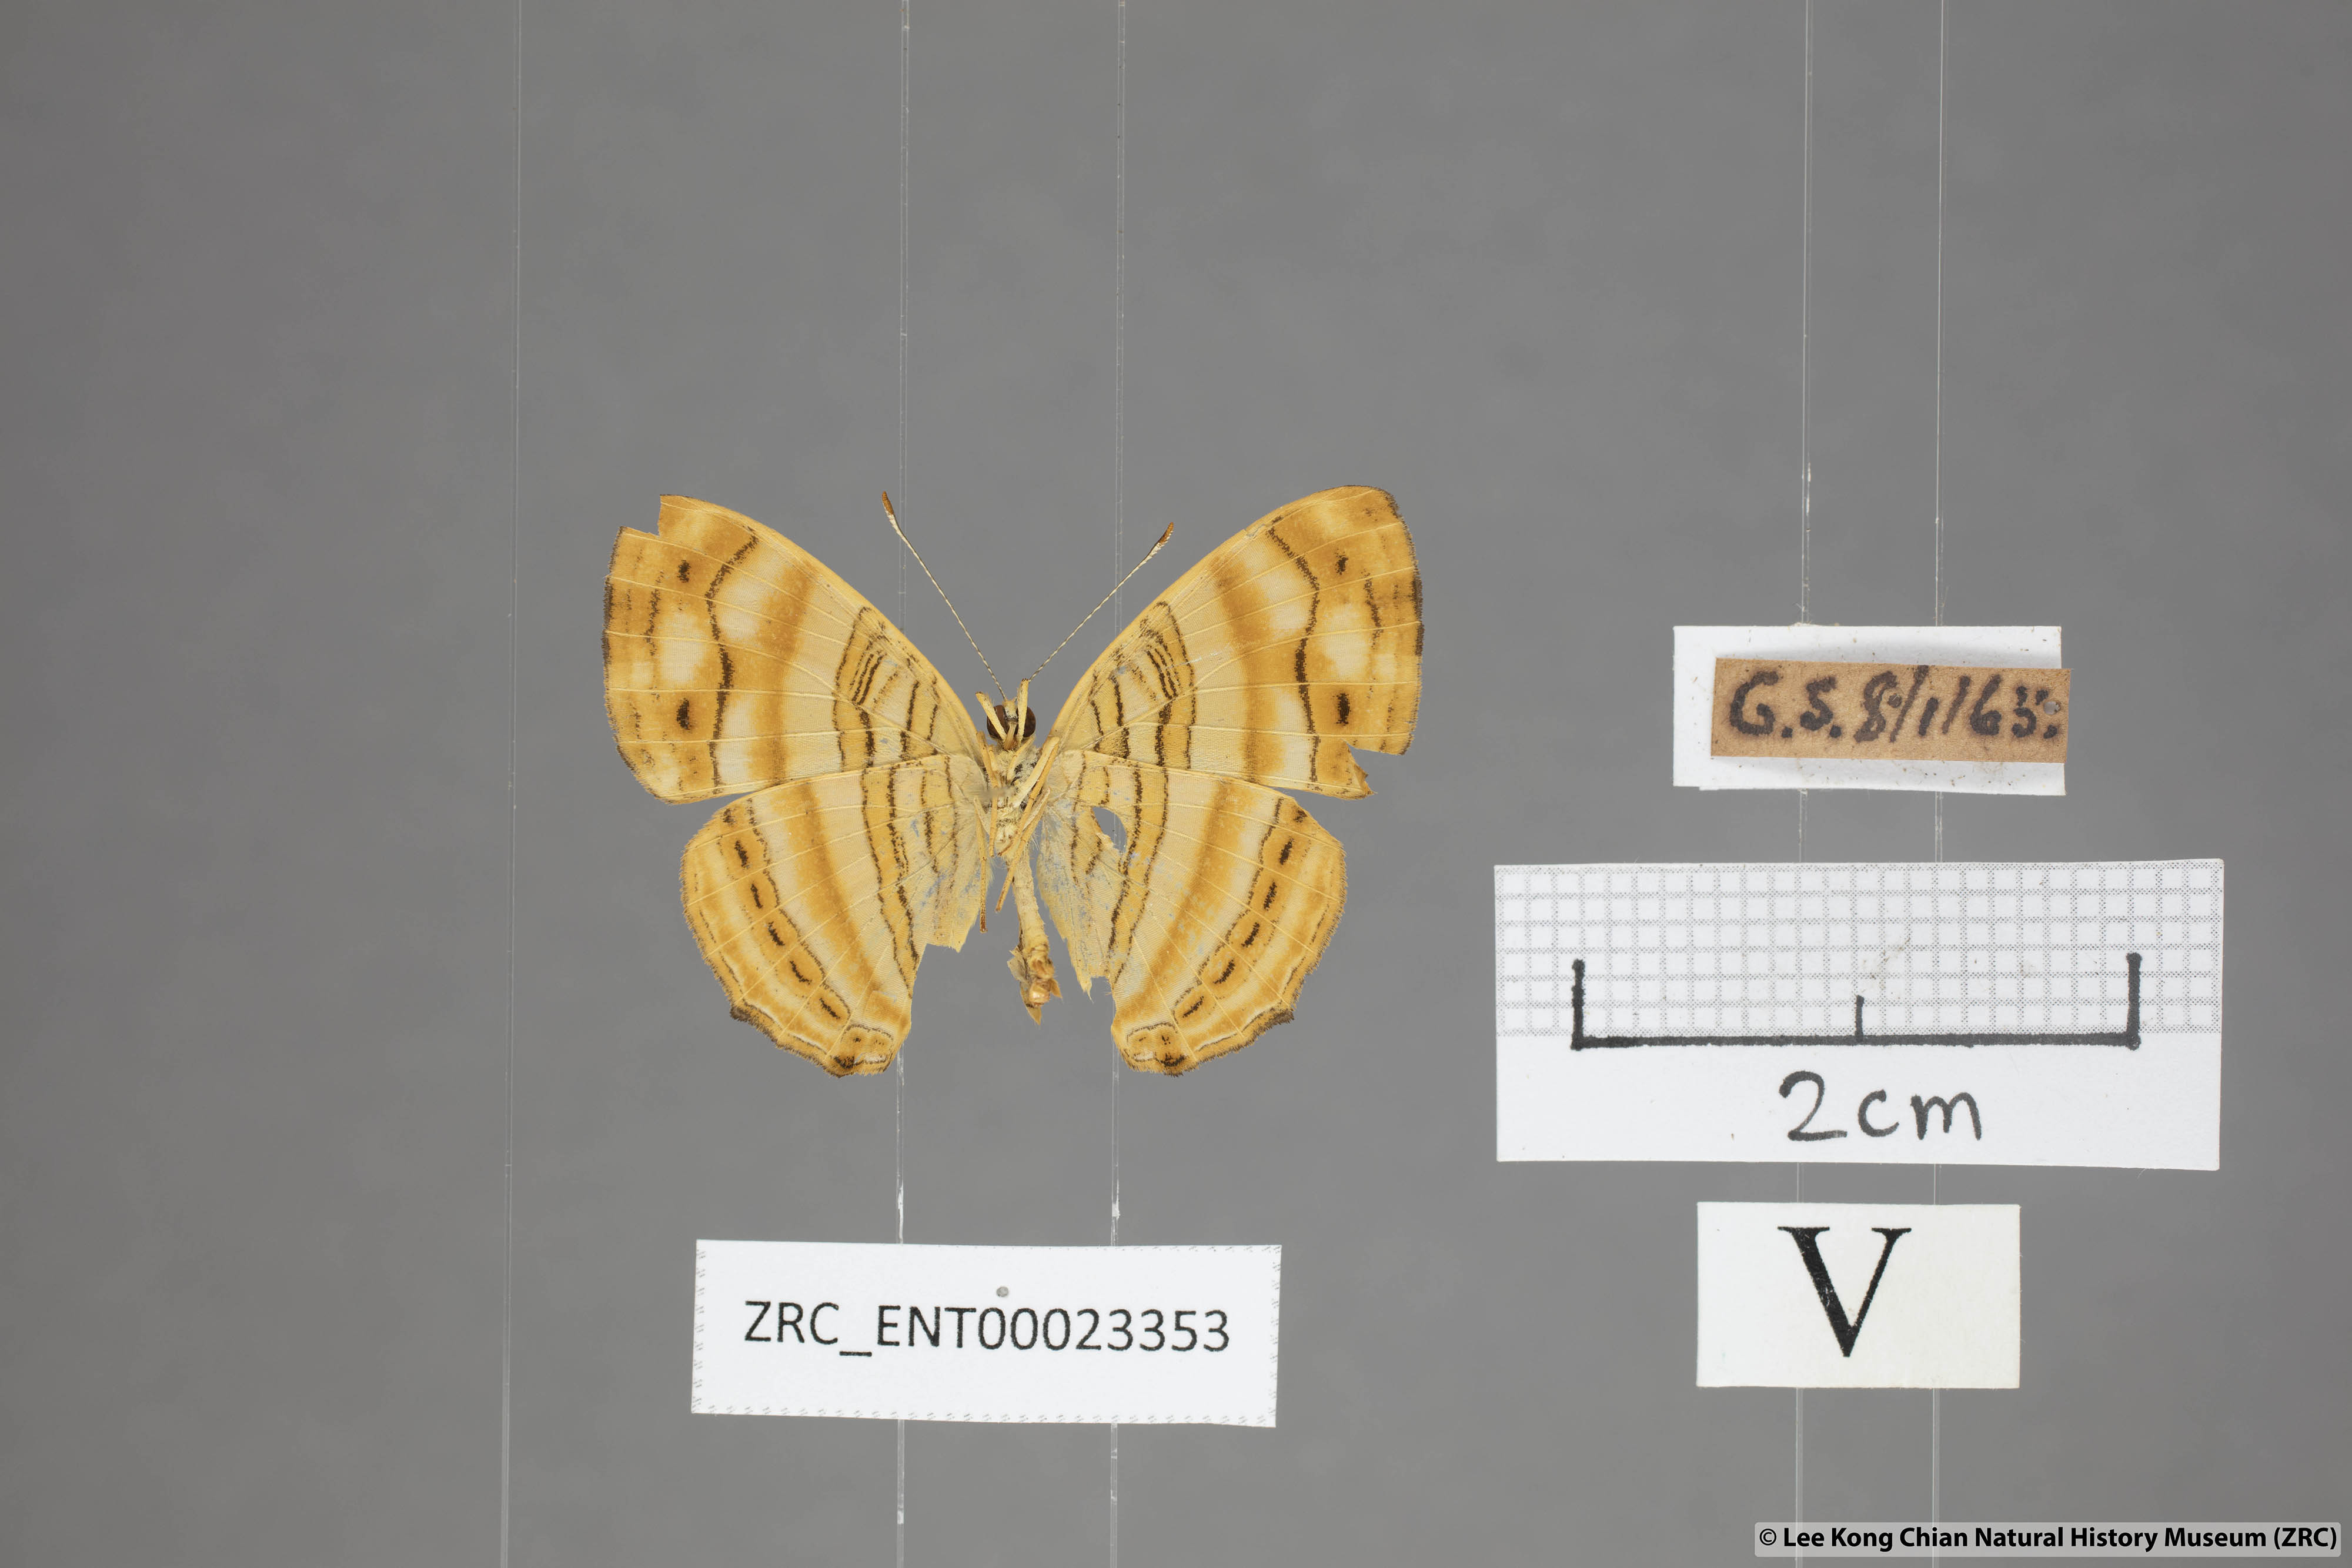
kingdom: Animalia
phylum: Arthropoda
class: Insecta
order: Lepidoptera
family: Nymphalidae
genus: Chersonesia
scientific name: Chersonesia intermedia
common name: Intermediate maplet
